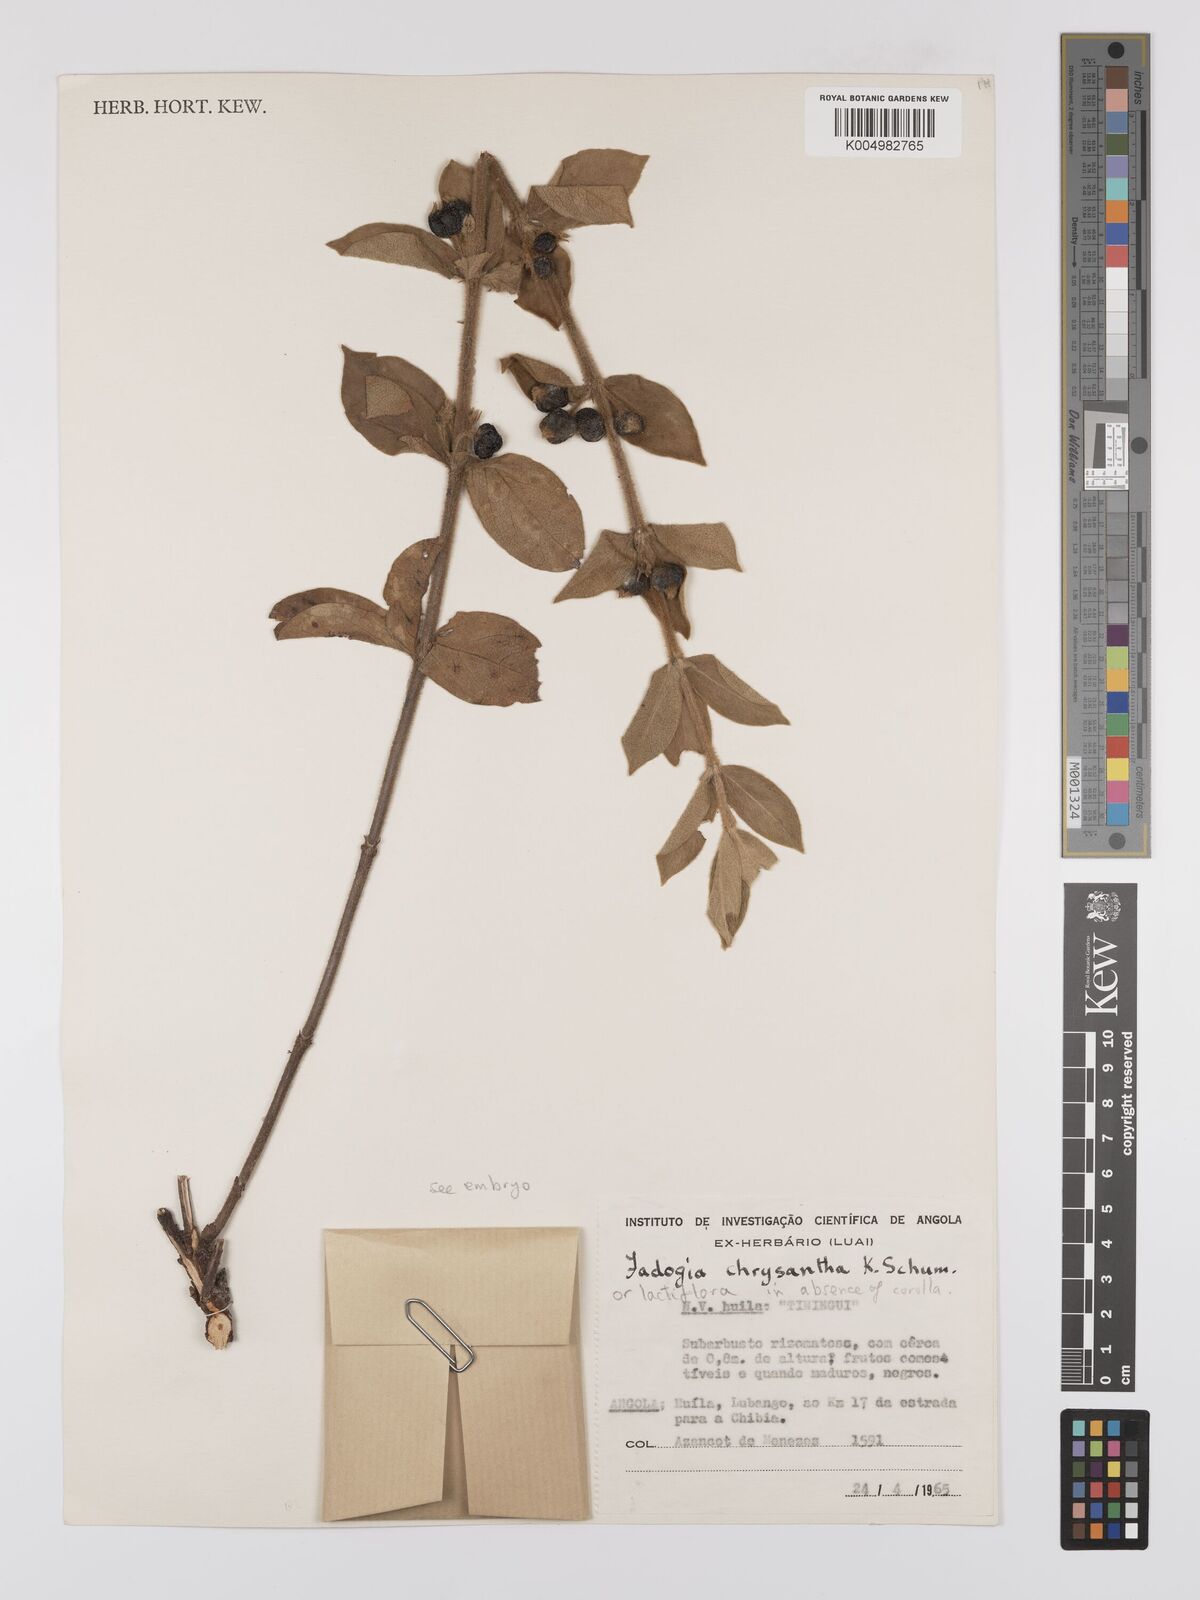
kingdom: Plantae
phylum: Tracheophyta
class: Magnoliopsida
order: Gentianales
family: Rubiaceae
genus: Fadogia
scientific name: Fadogia lactiflora
